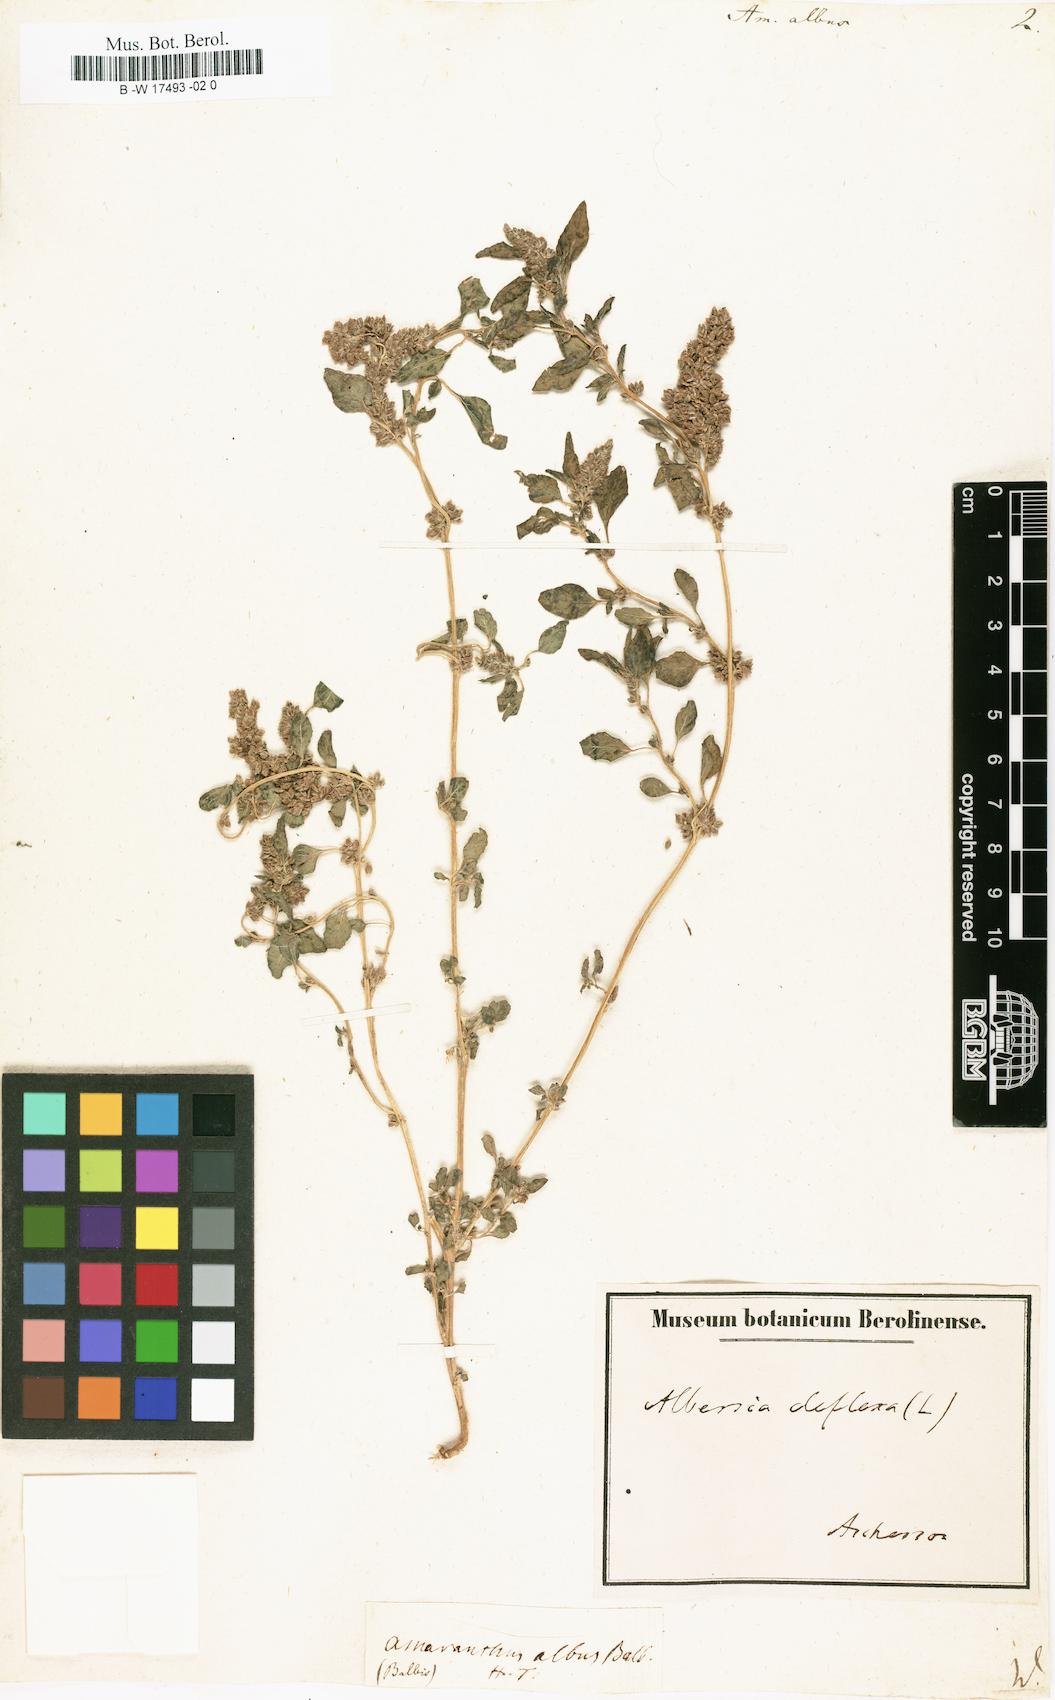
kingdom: Plantae
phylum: Tracheophyta
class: Magnoliopsida
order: Caryophyllales
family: Amaranthaceae
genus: Amaranthus
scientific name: Amaranthus albus
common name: White pigweed
